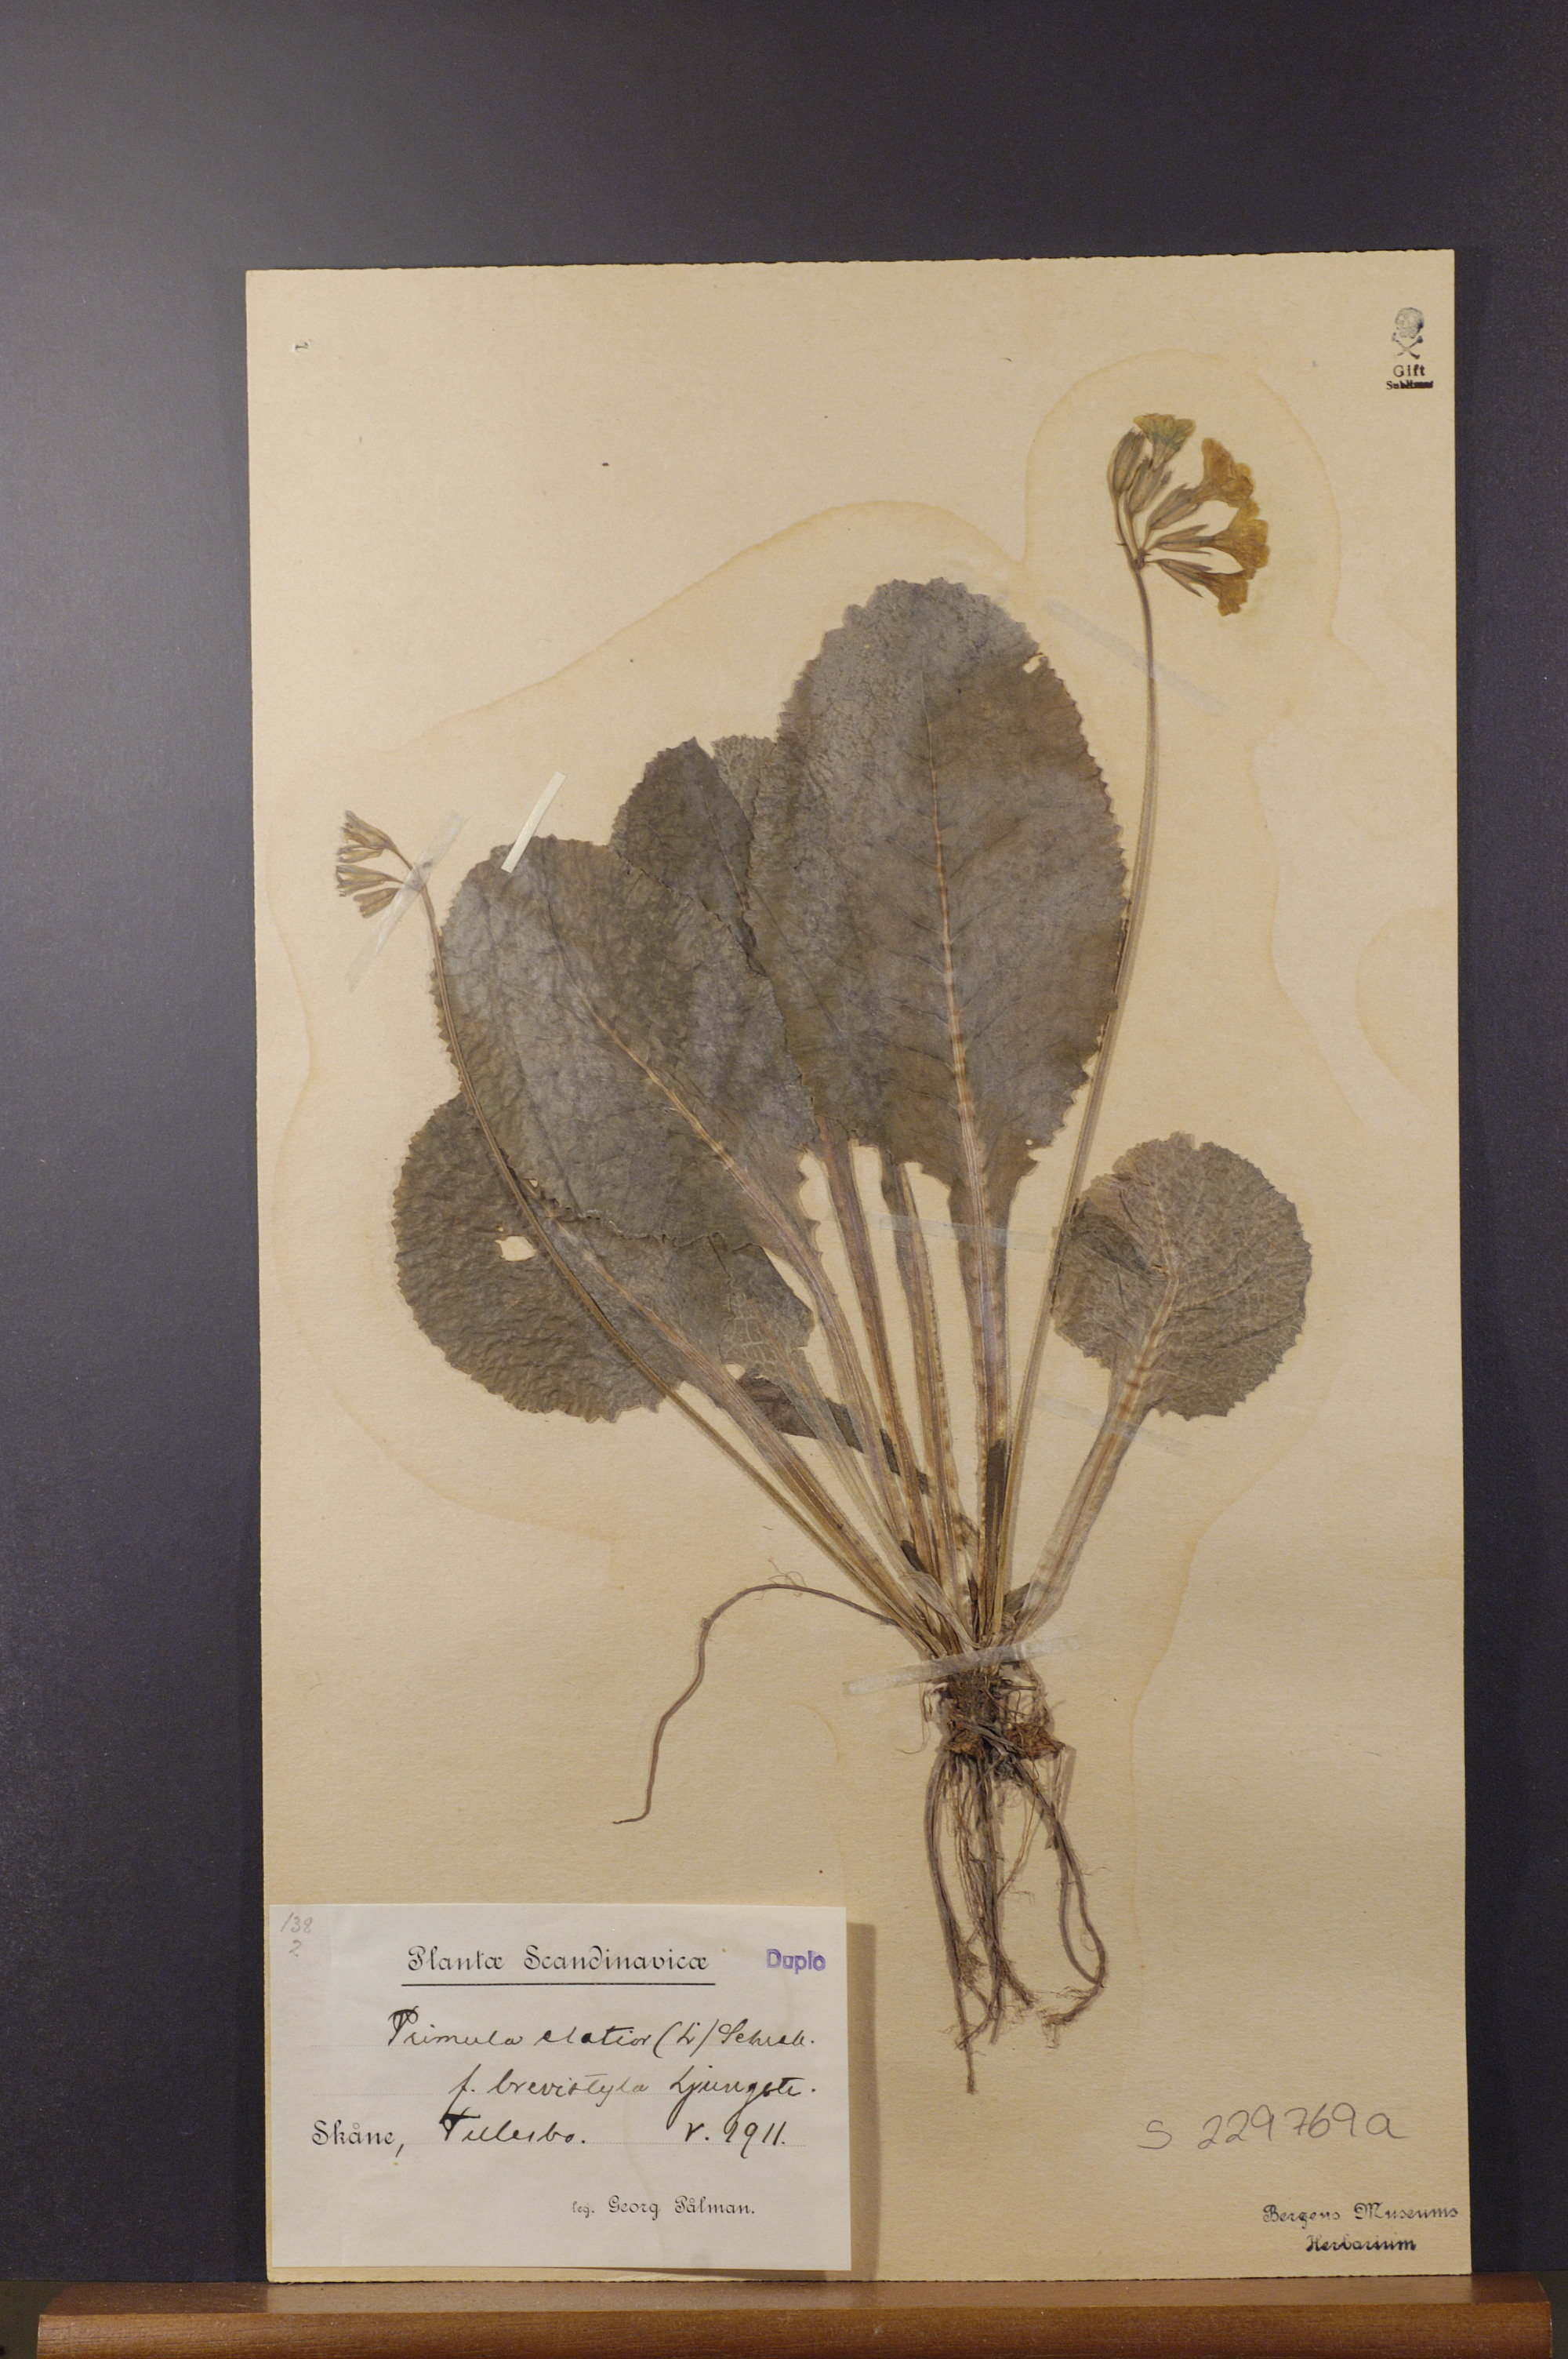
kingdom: Plantae
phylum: Tracheophyta
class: Magnoliopsida
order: Ericales
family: Primulaceae
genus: Primula
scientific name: Primula elatior
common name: Oxlip
